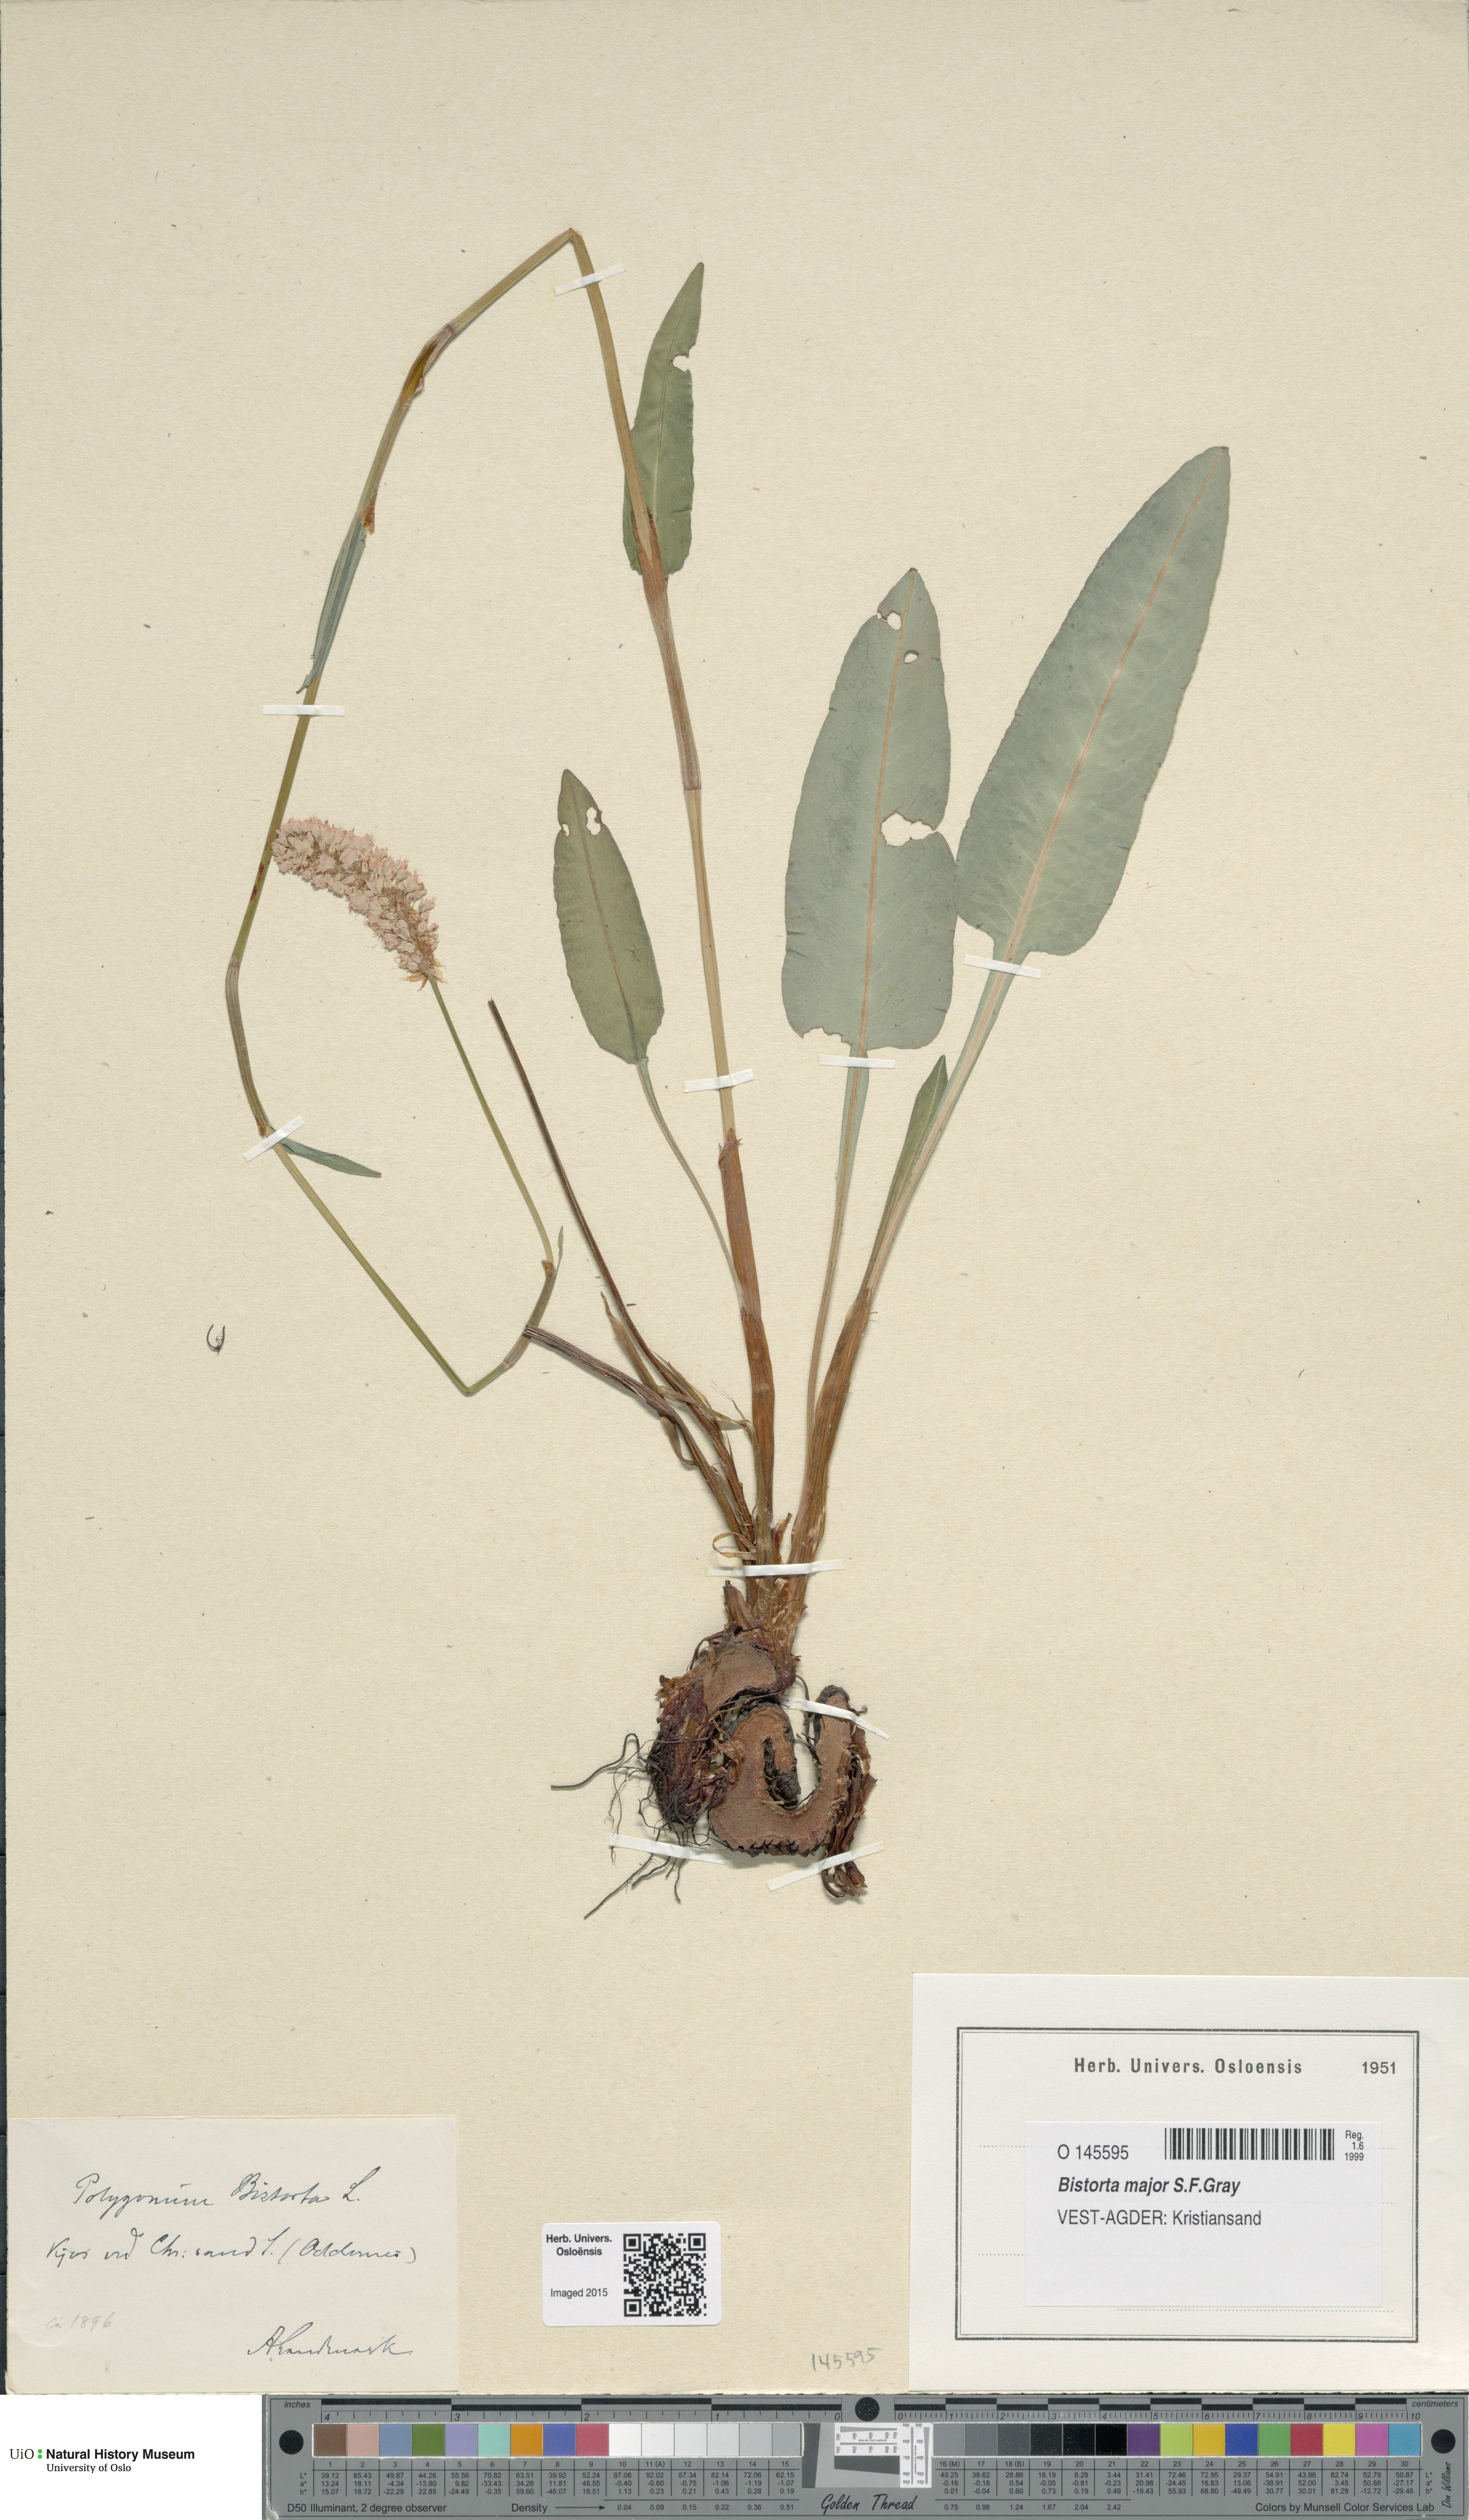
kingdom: Plantae
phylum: Tracheophyta
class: Magnoliopsida
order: Caryophyllales
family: Polygonaceae
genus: Bistorta
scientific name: Bistorta officinalis
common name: Common bistort
